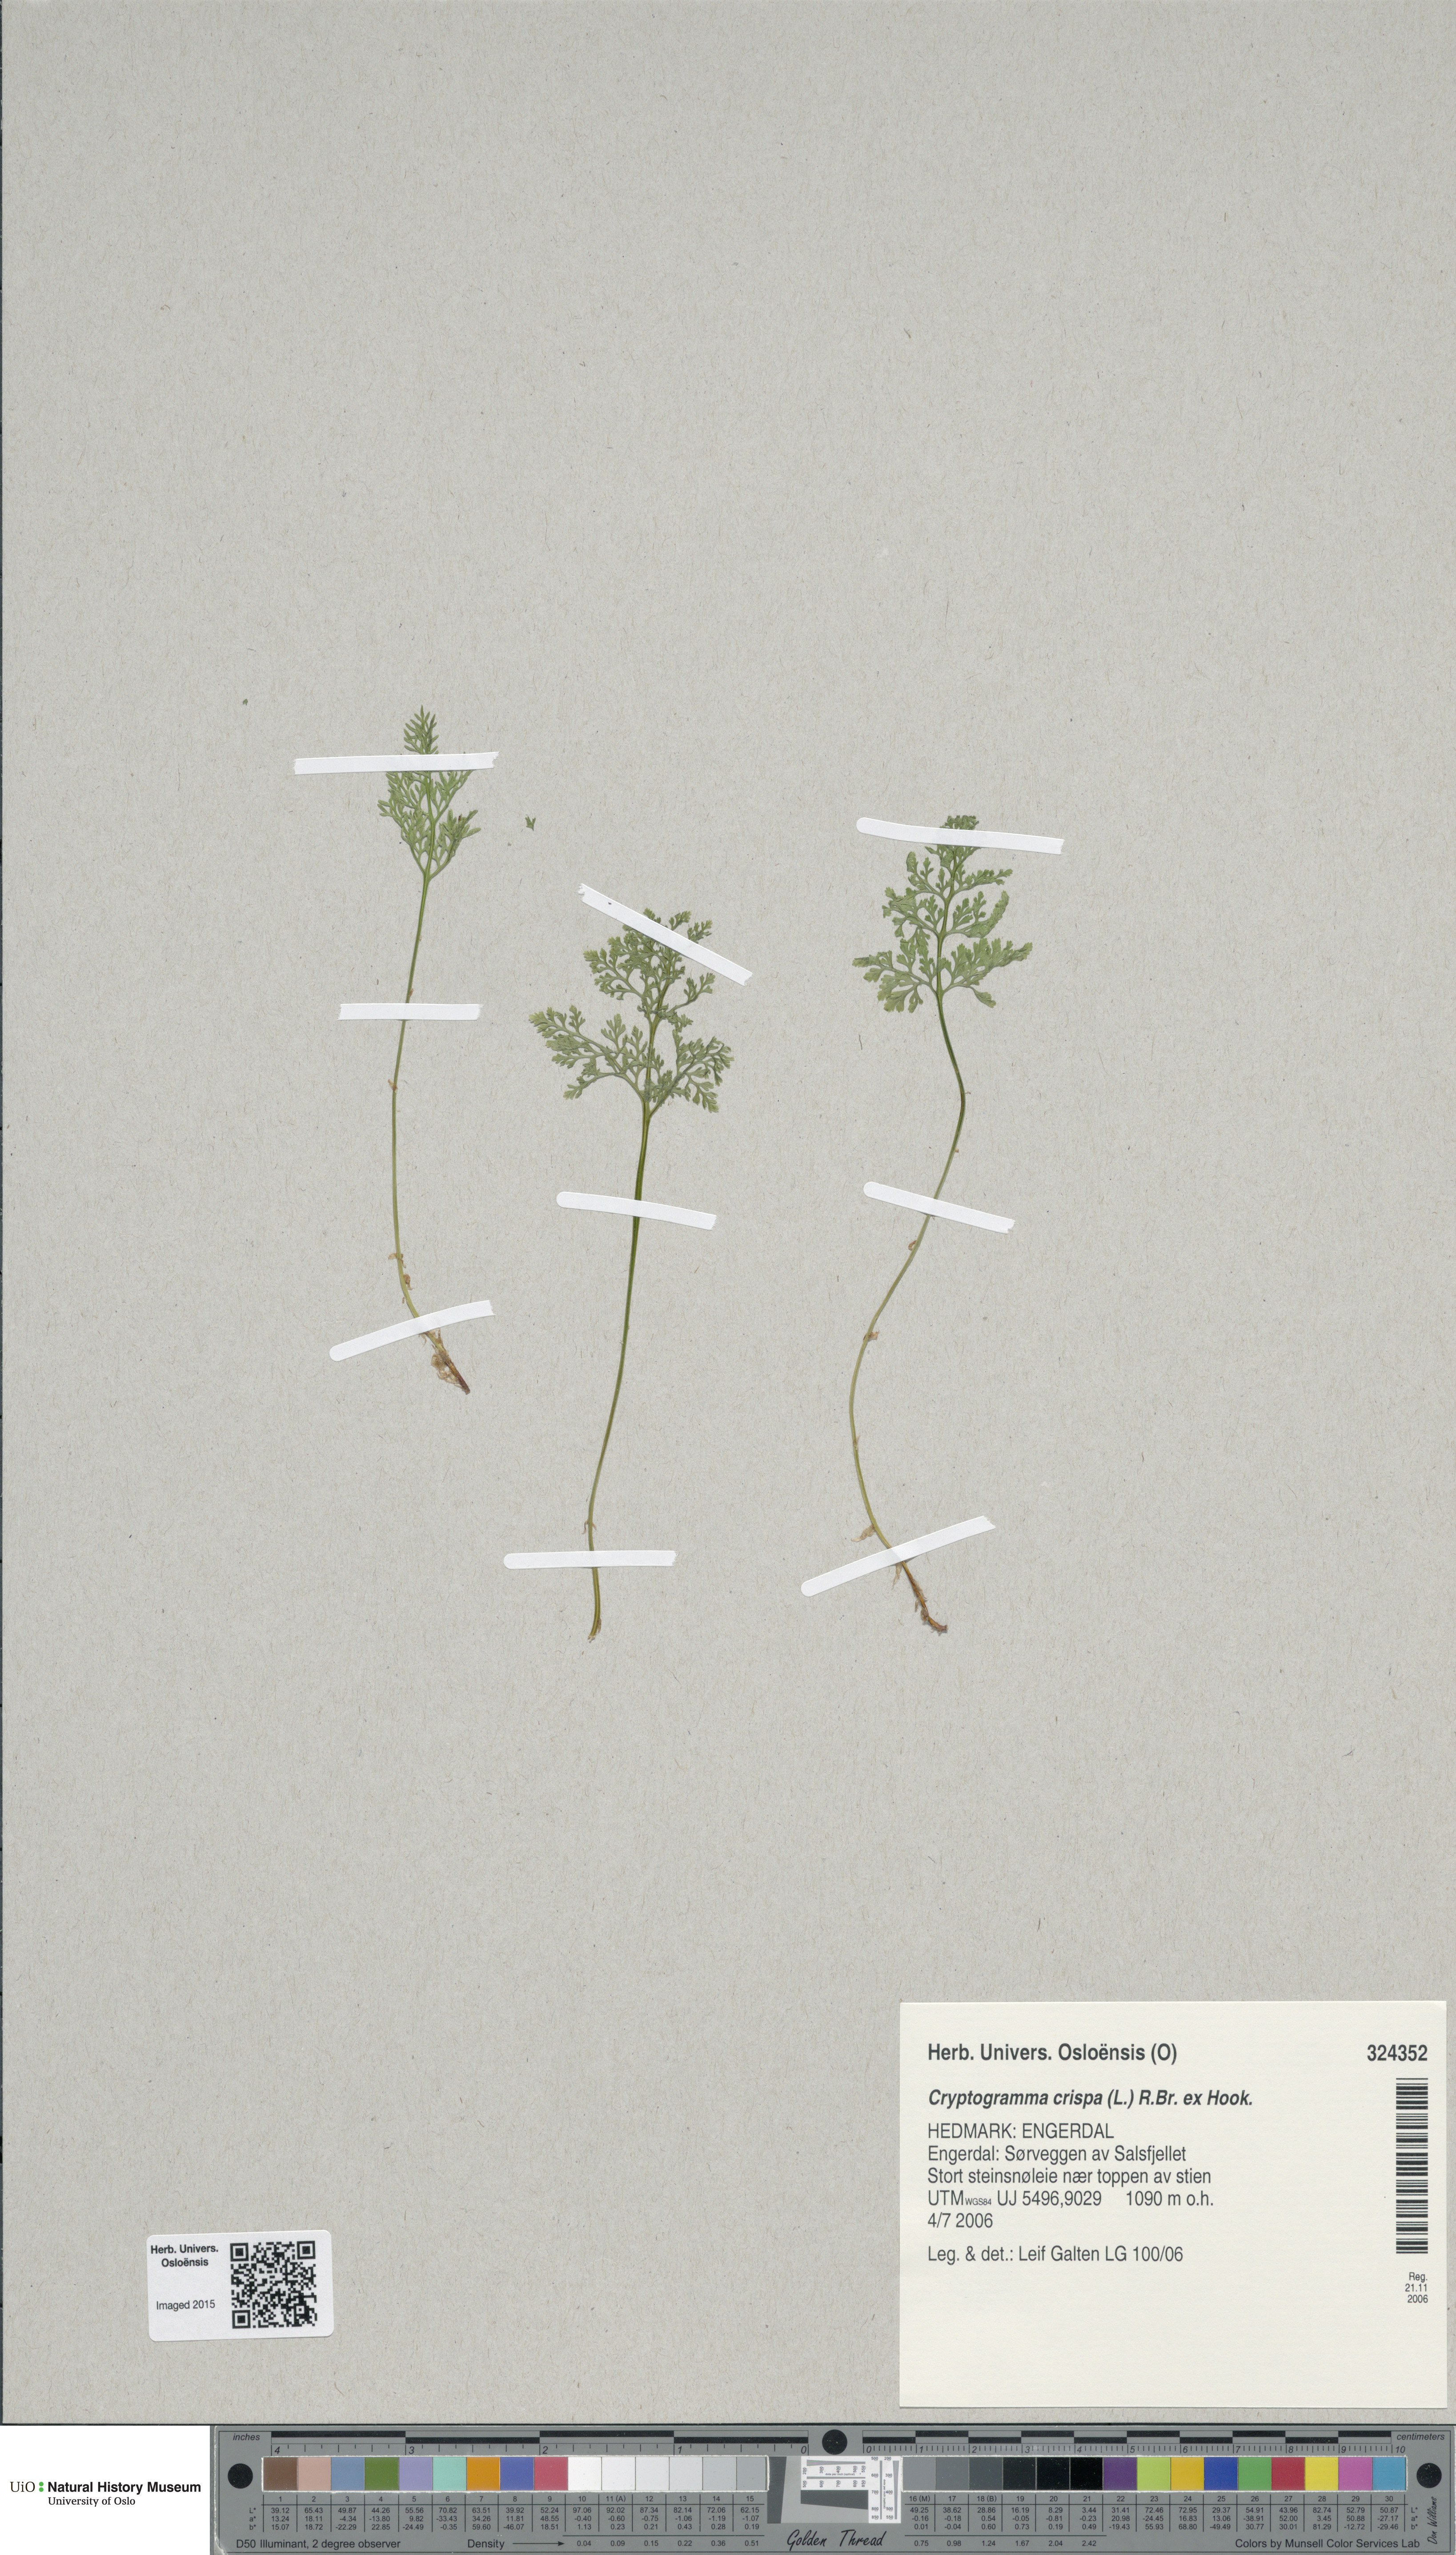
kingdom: Plantae
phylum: Tracheophyta
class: Polypodiopsida
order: Polypodiales
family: Pteridaceae
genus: Cryptogramma
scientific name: Cryptogramma crispa
